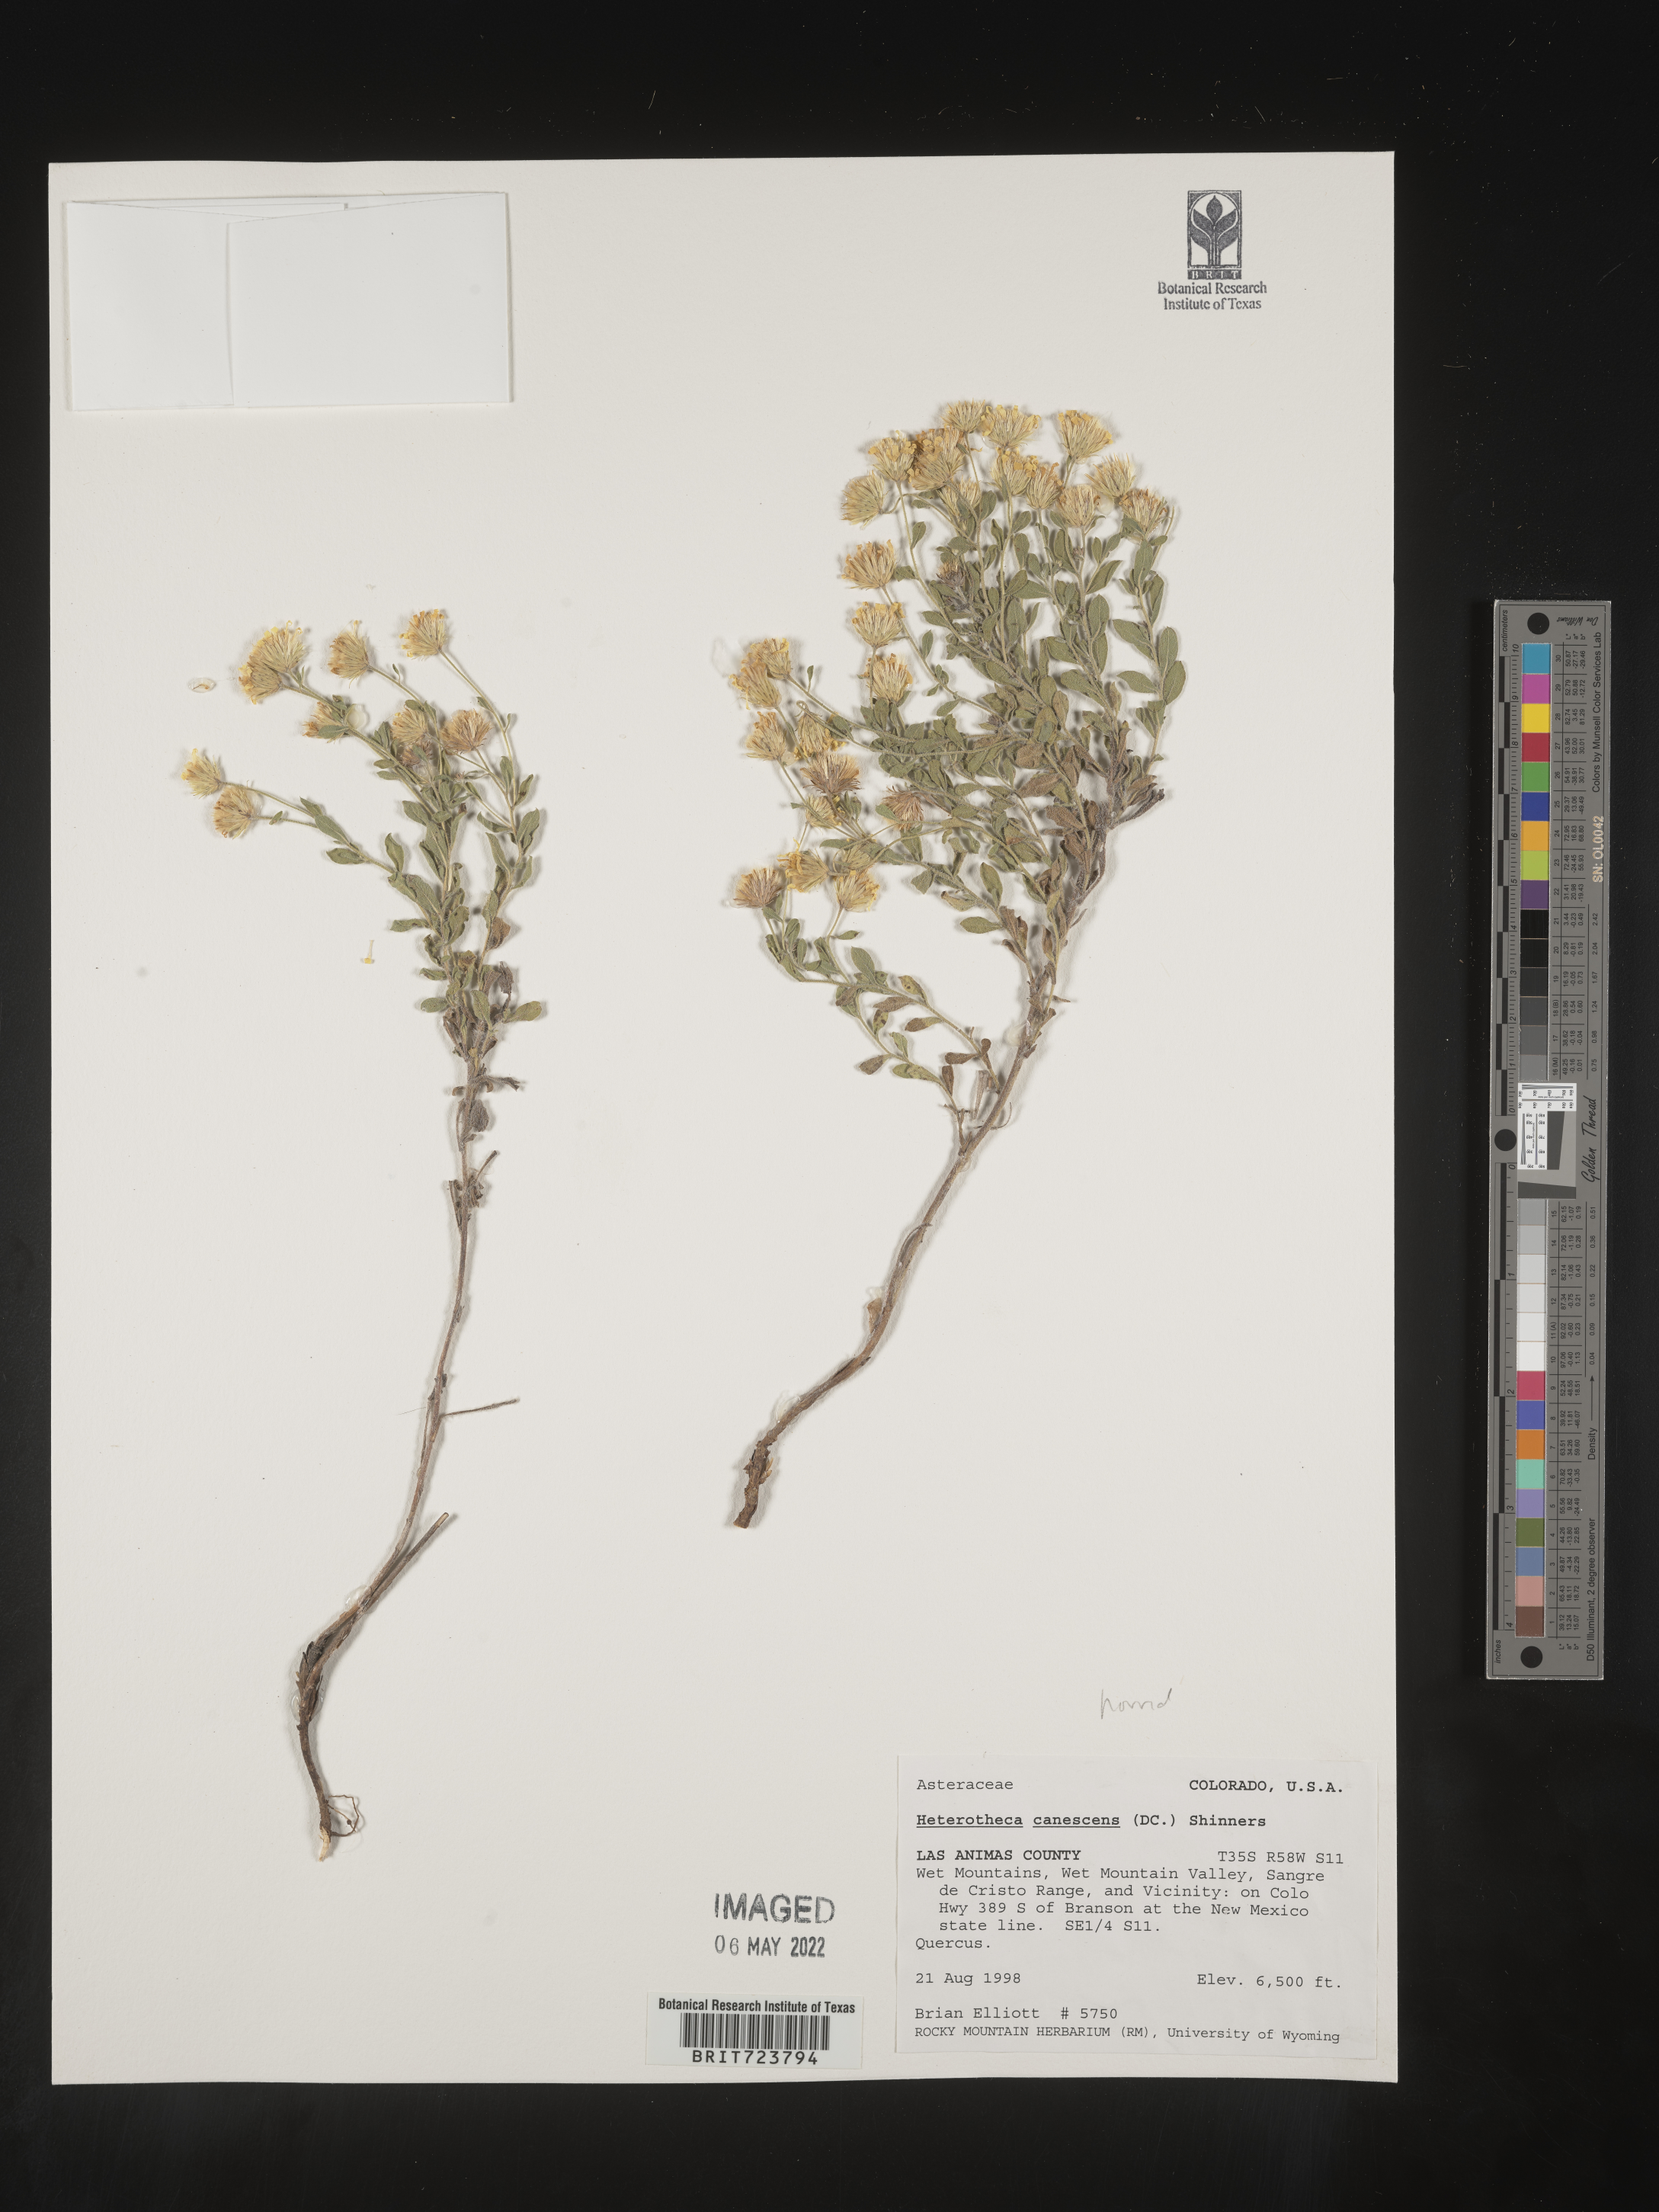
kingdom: Plantae
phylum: Tracheophyta
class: Magnoliopsida
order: Asterales
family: Asteraceae
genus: Heterotheca
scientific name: Heterotheca hirsutissima
